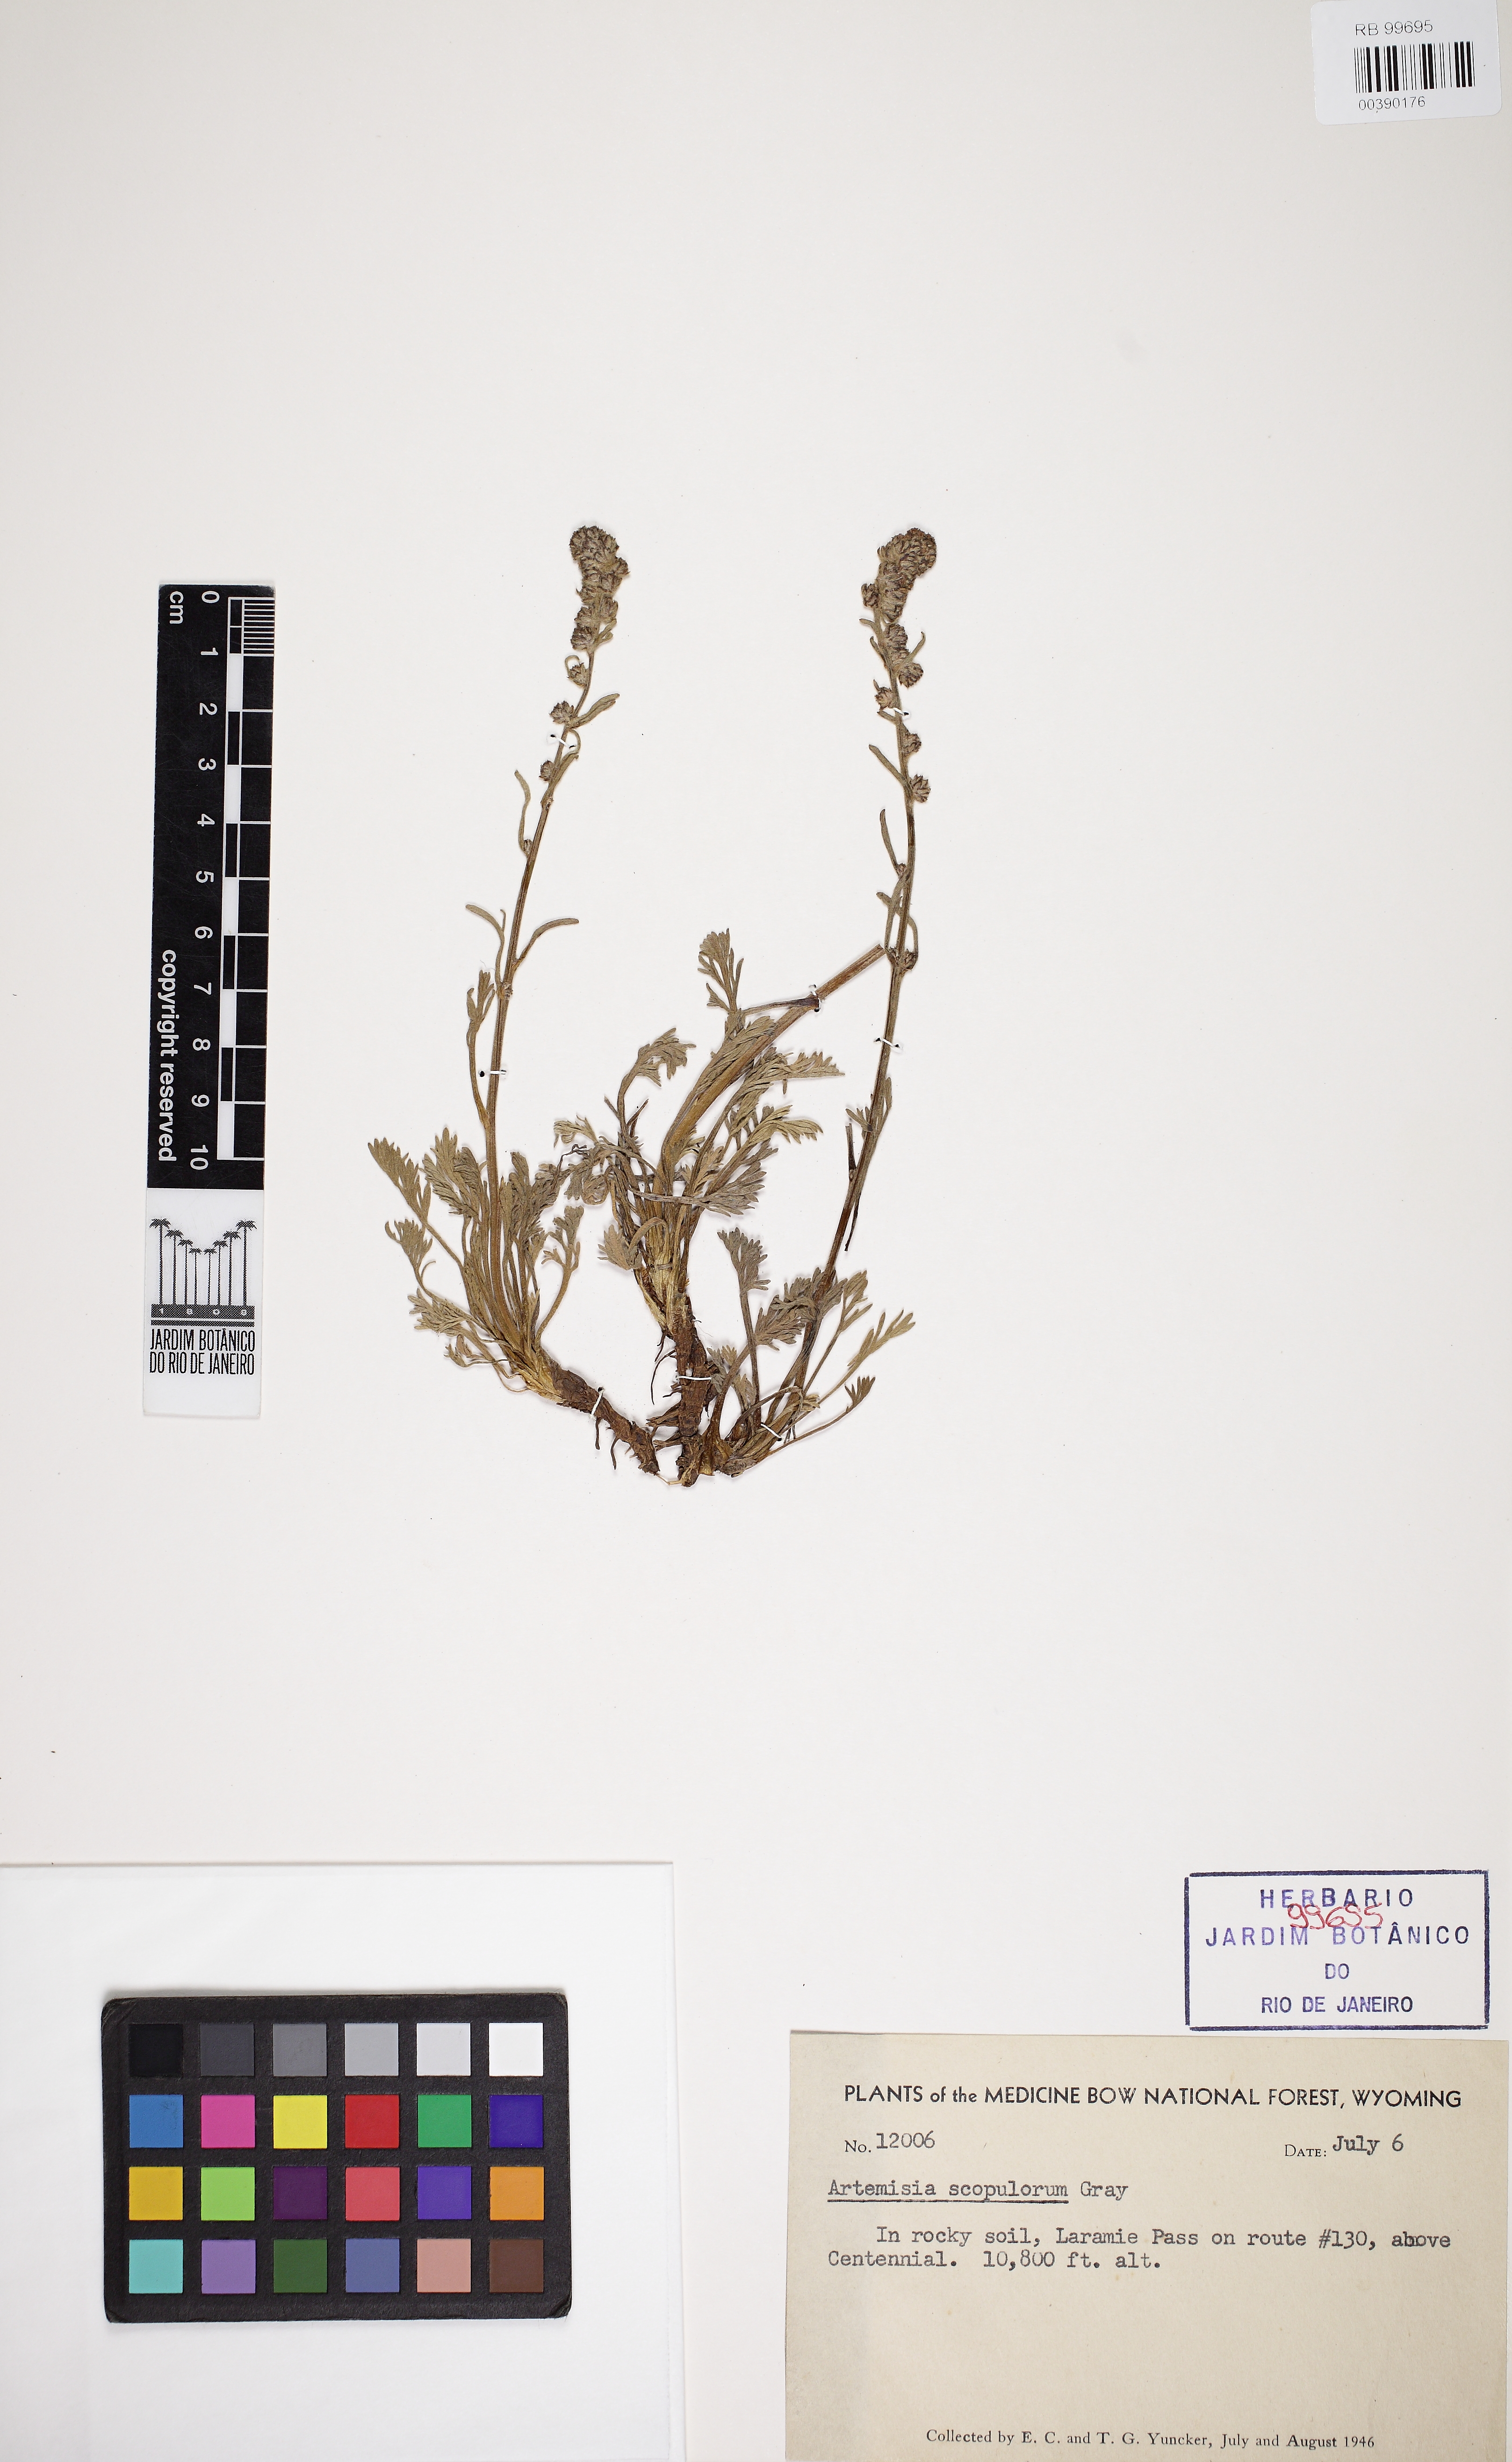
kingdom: Plantae
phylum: Tracheophyta
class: Magnoliopsida
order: Asterales
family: Asteraceae
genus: Artemisia
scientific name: Artemisia scopulorum
